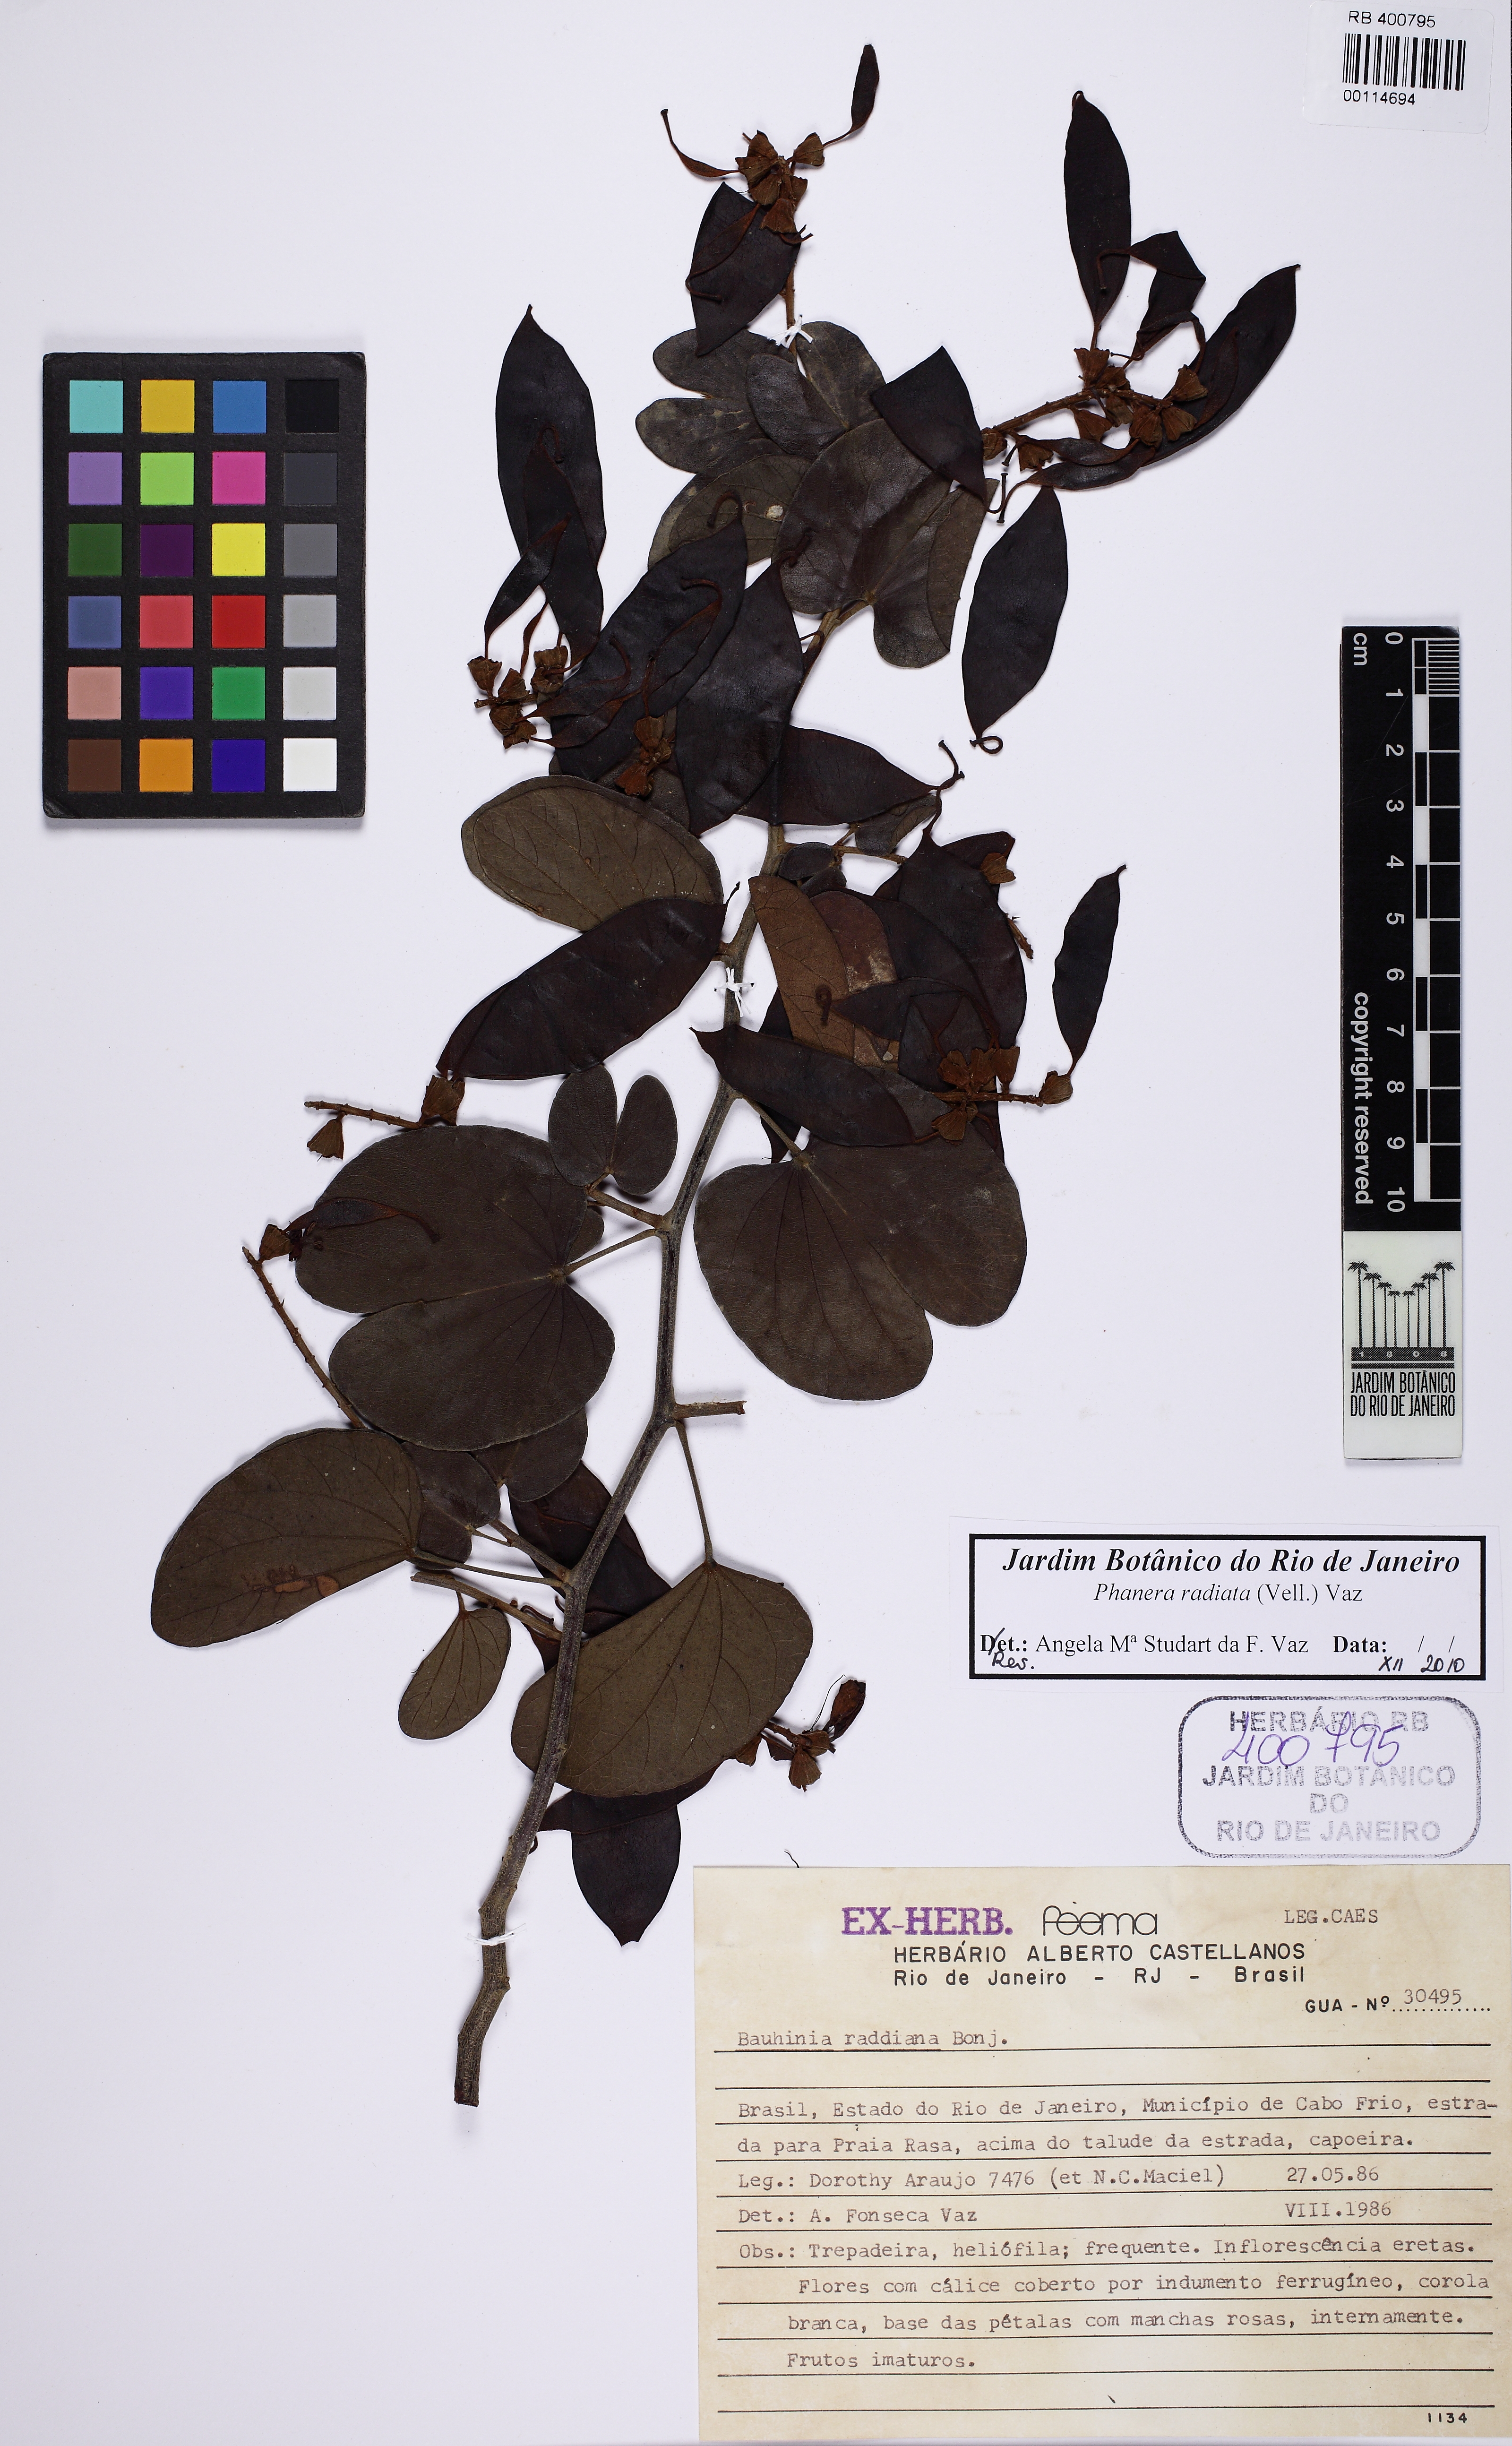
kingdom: Plantae
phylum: Tracheophyta
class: Magnoliopsida
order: Fabales
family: Fabaceae
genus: Schnella
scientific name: Schnella macrostachya
